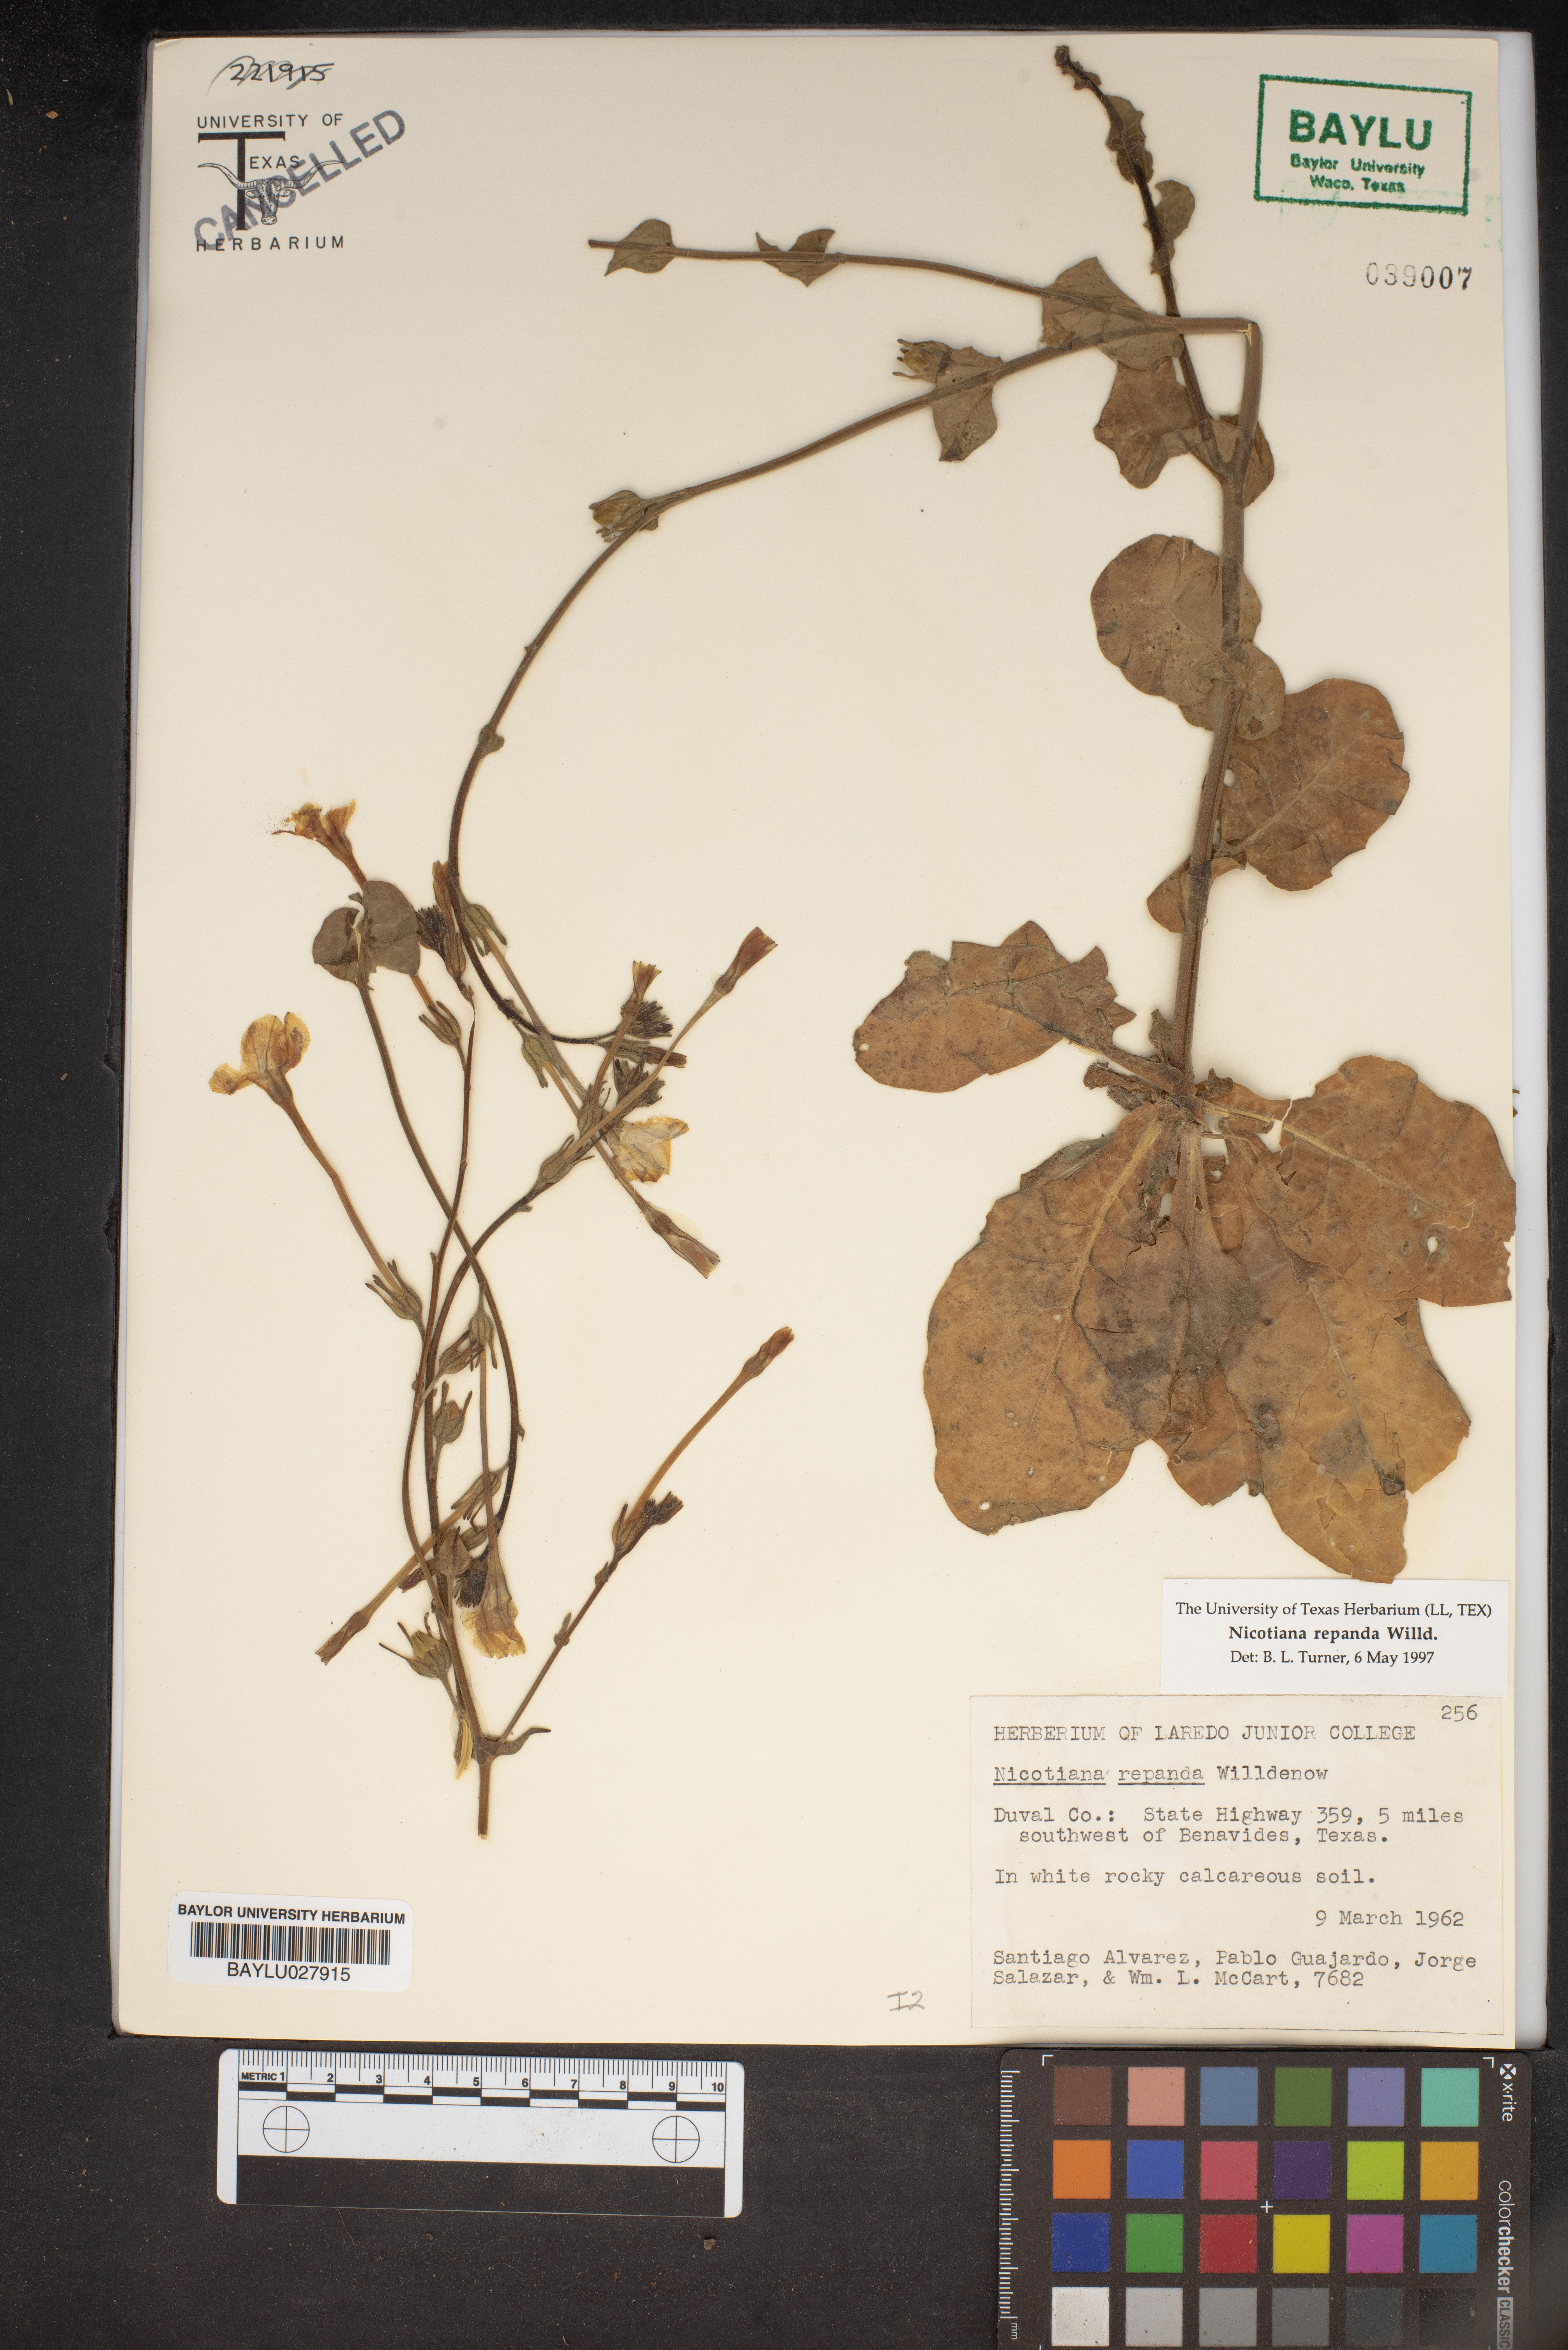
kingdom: Plantae
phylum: Tracheophyta
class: Magnoliopsida
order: Solanales
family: Solanaceae
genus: Nicotiana
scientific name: Nicotiana repanda
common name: Fiddle-leaf tobacco
